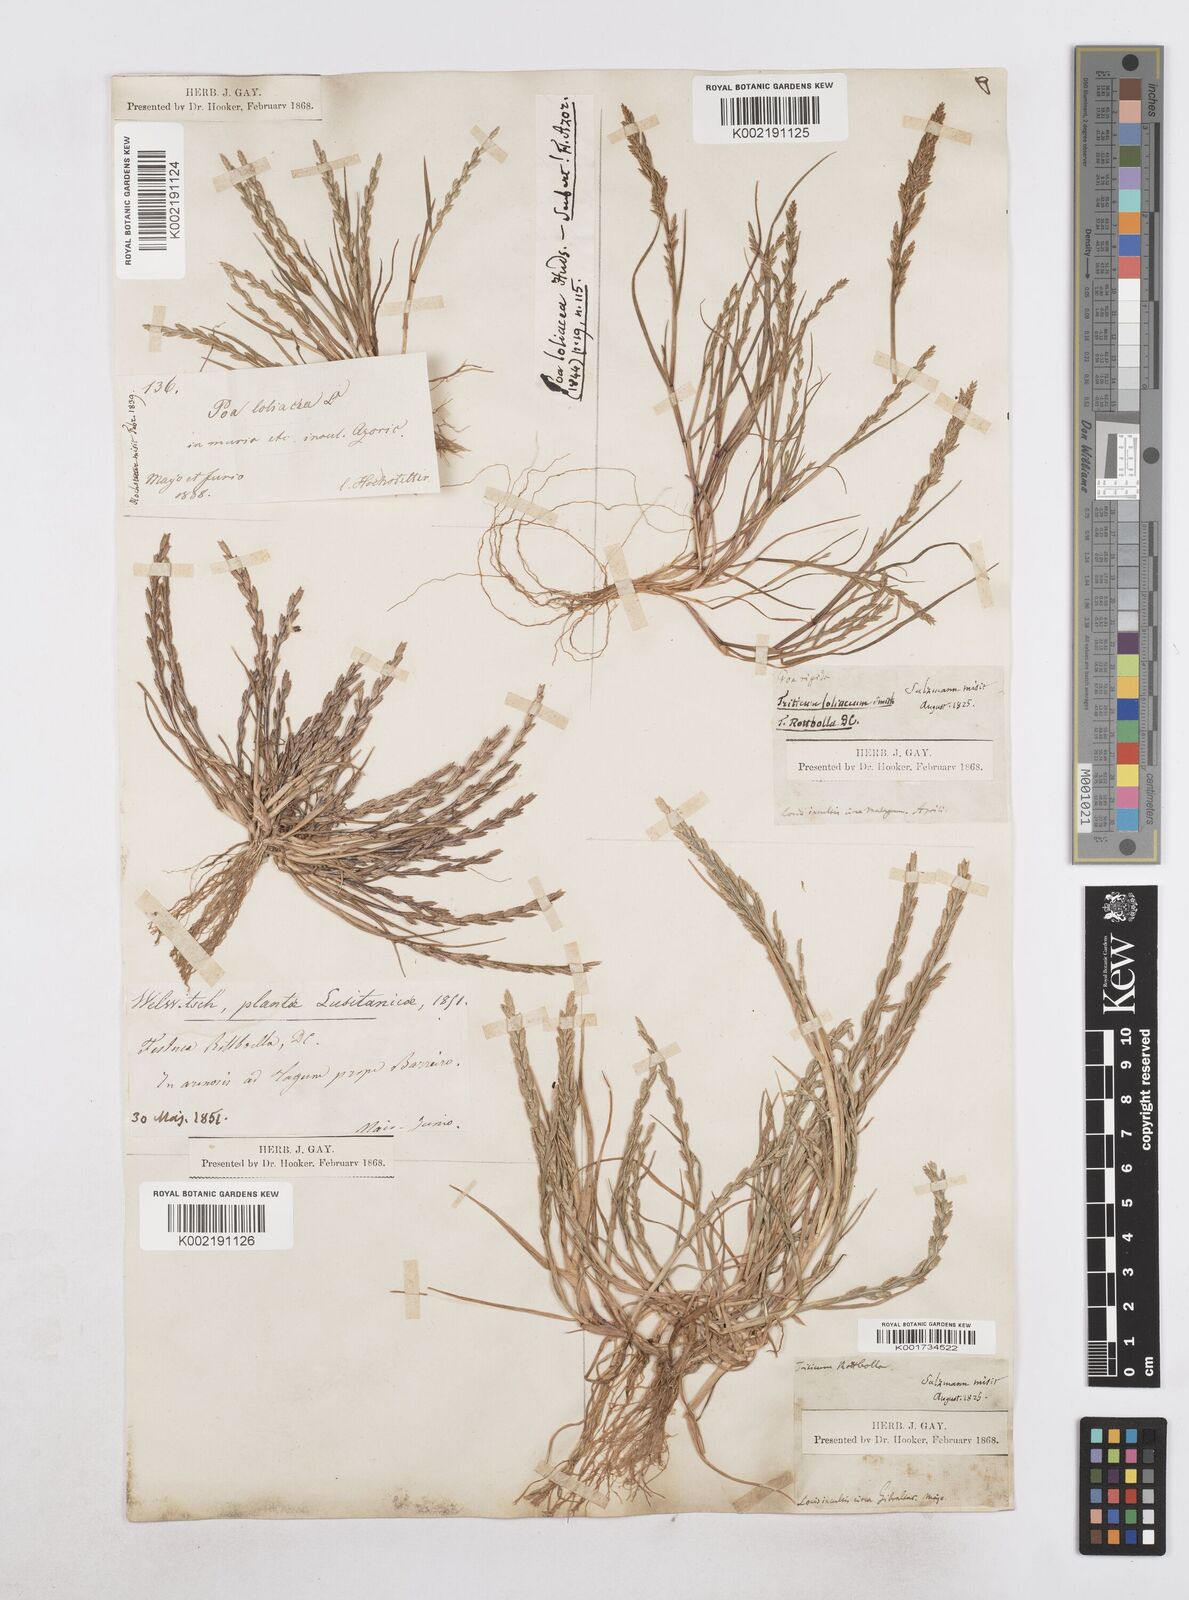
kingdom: Plantae
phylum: Tracheophyta
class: Liliopsida
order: Poales
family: Poaceae
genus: Catapodium
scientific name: Catapodium marinum
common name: Sea fern-grass
